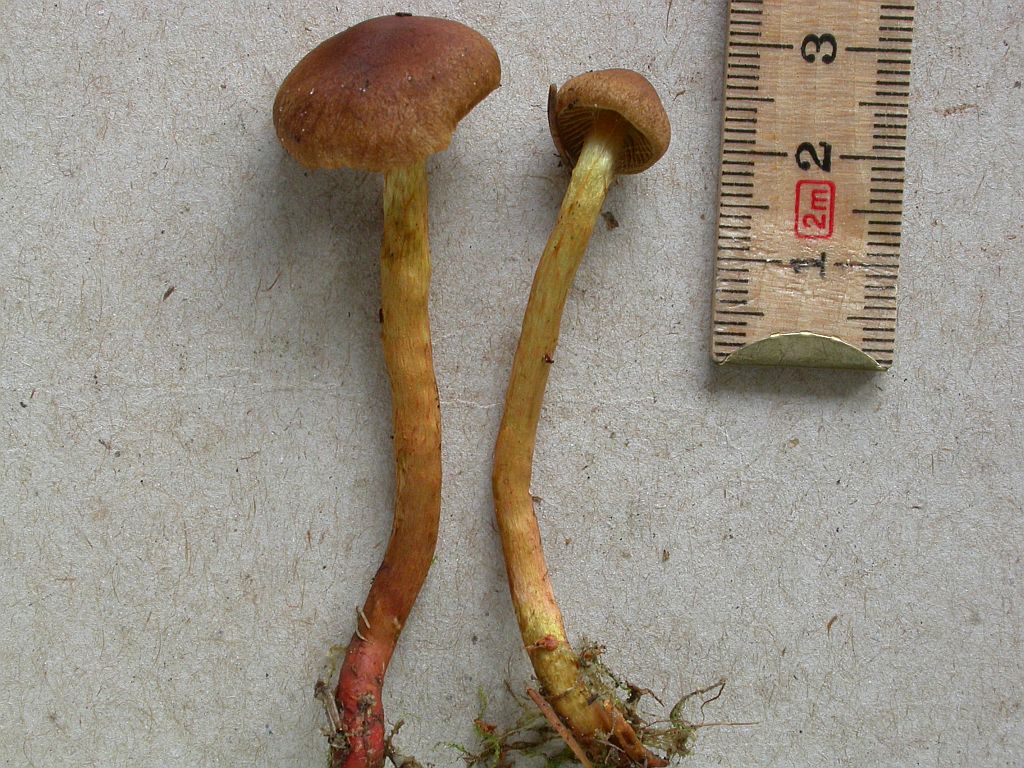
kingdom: Fungi
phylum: Basidiomycota
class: Agaricomycetes
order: Agaricales
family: Cortinariaceae
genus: Cortinarius
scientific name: Cortinarius bataillei
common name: orangefodet slørhat
